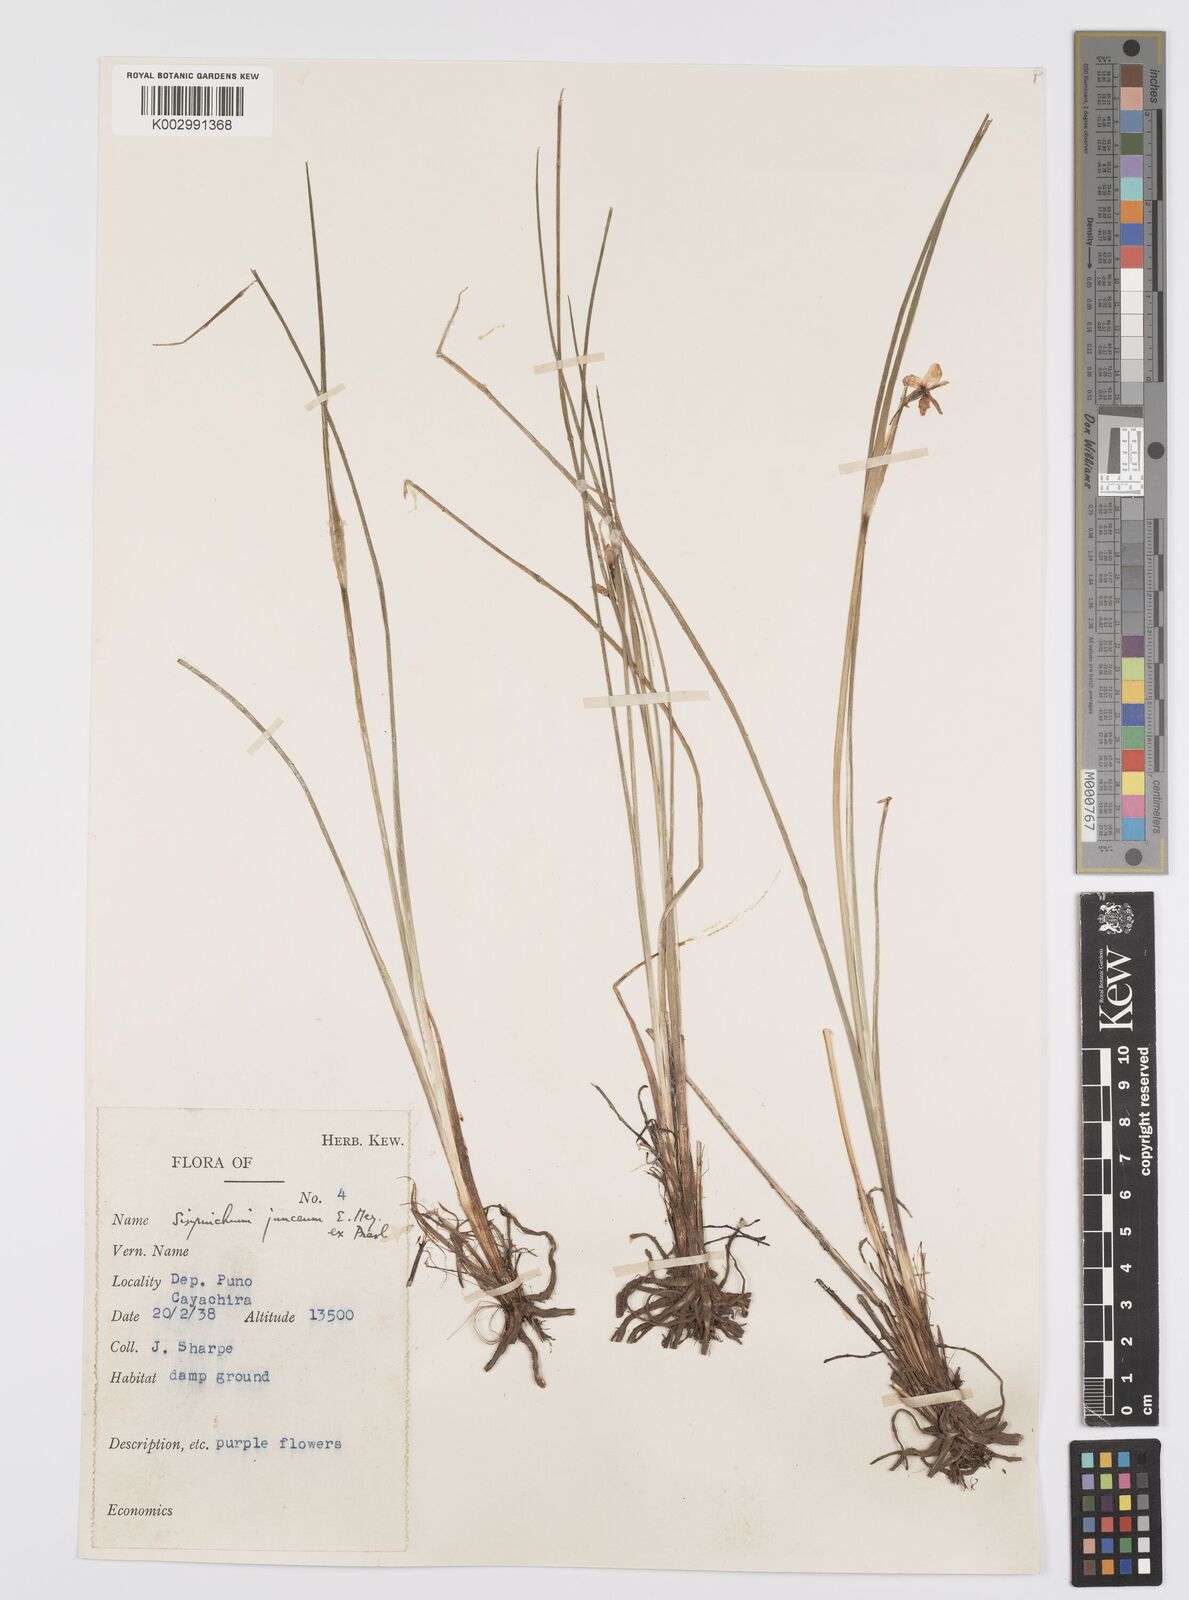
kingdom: Plantae
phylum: Tracheophyta
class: Liliopsida
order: Asparagales
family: Iridaceae
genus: Olsynium
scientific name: Olsynium junceum
